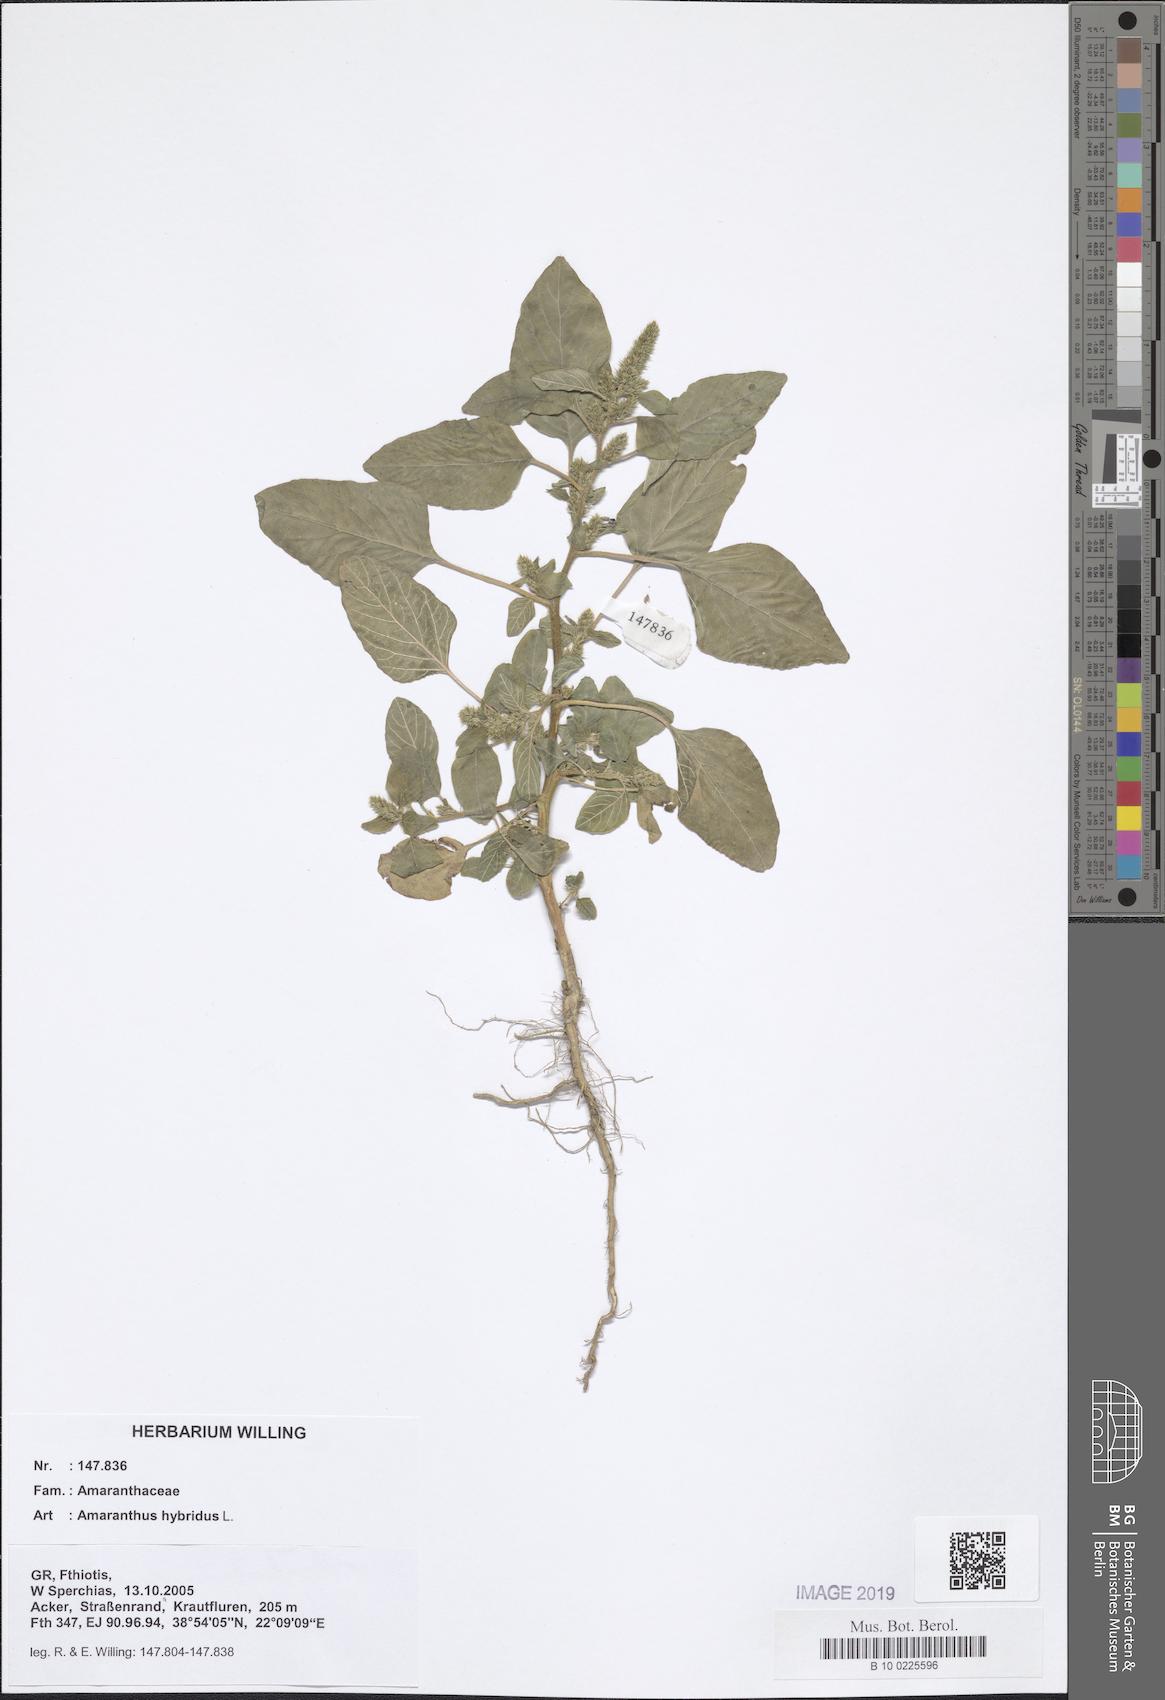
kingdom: Plantae
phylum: Tracheophyta
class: Magnoliopsida
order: Caryophyllales
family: Amaranthaceae
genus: Amaranthus
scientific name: Amaranthus hybridus
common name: Green amaranth
